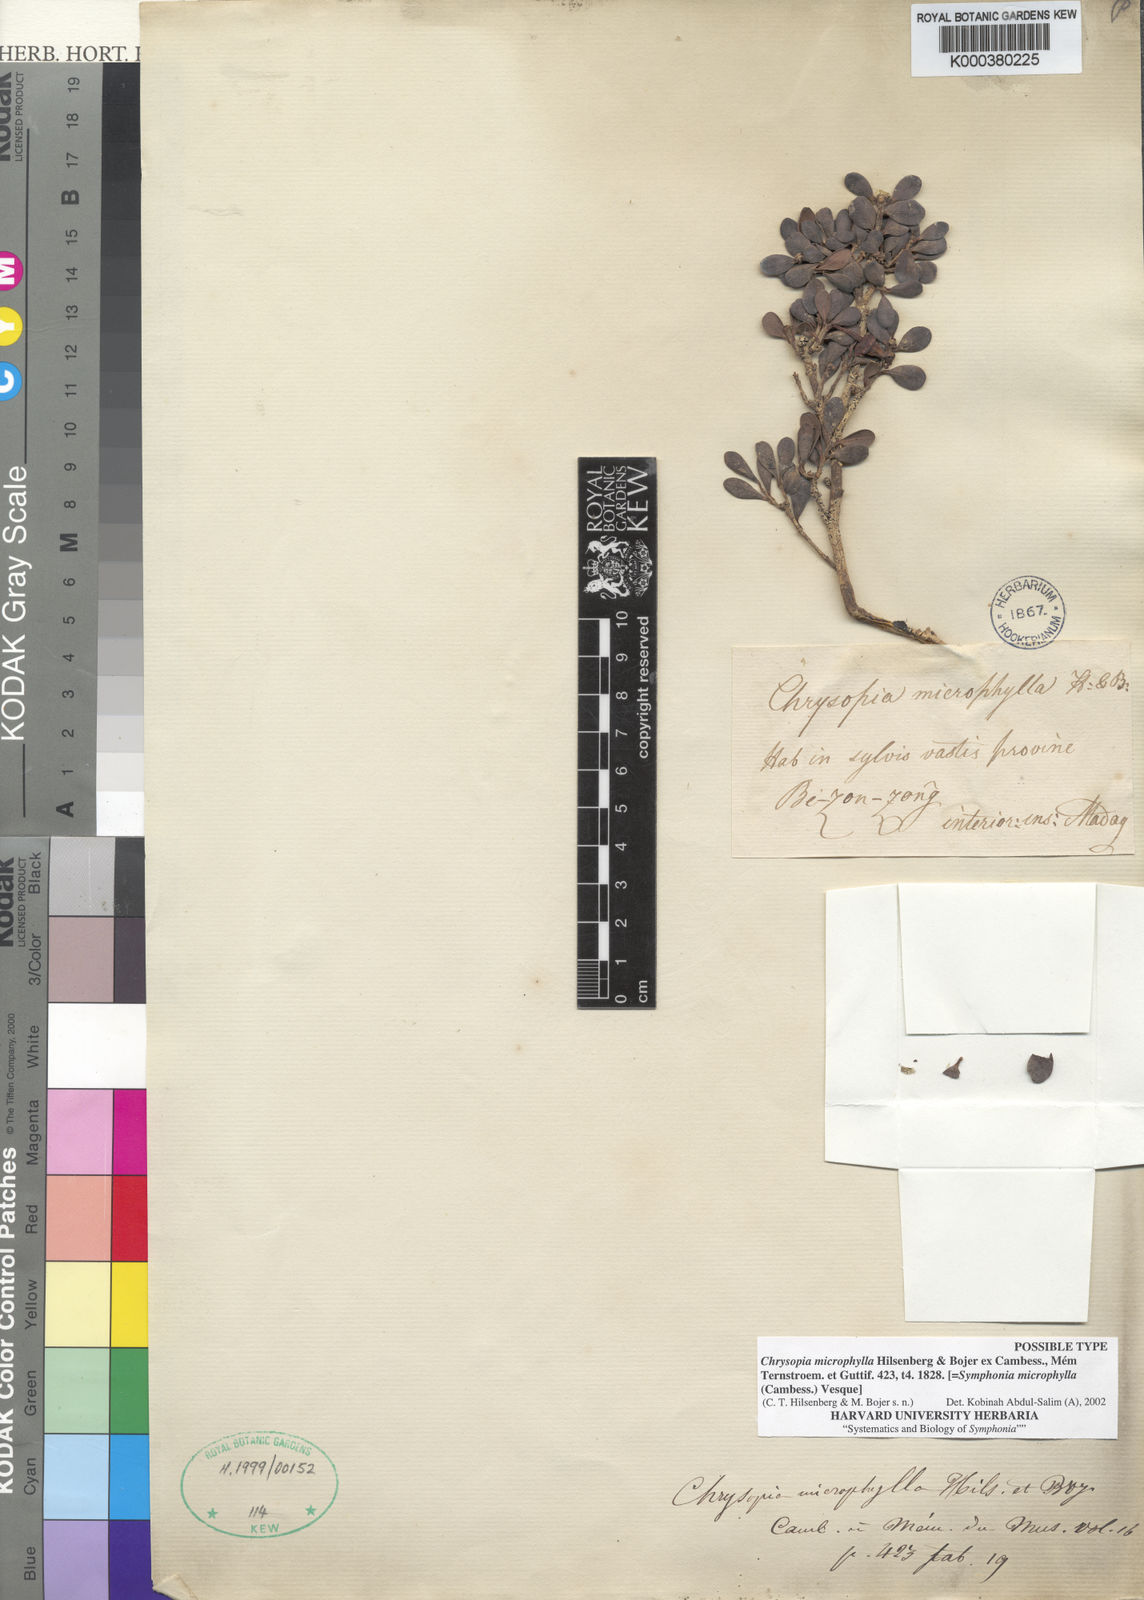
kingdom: Plantae
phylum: Tracheophyta
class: Magnoliopsida
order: Malpighiales
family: Clusiaceae
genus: Symphonia
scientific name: Symphonia microphylla
